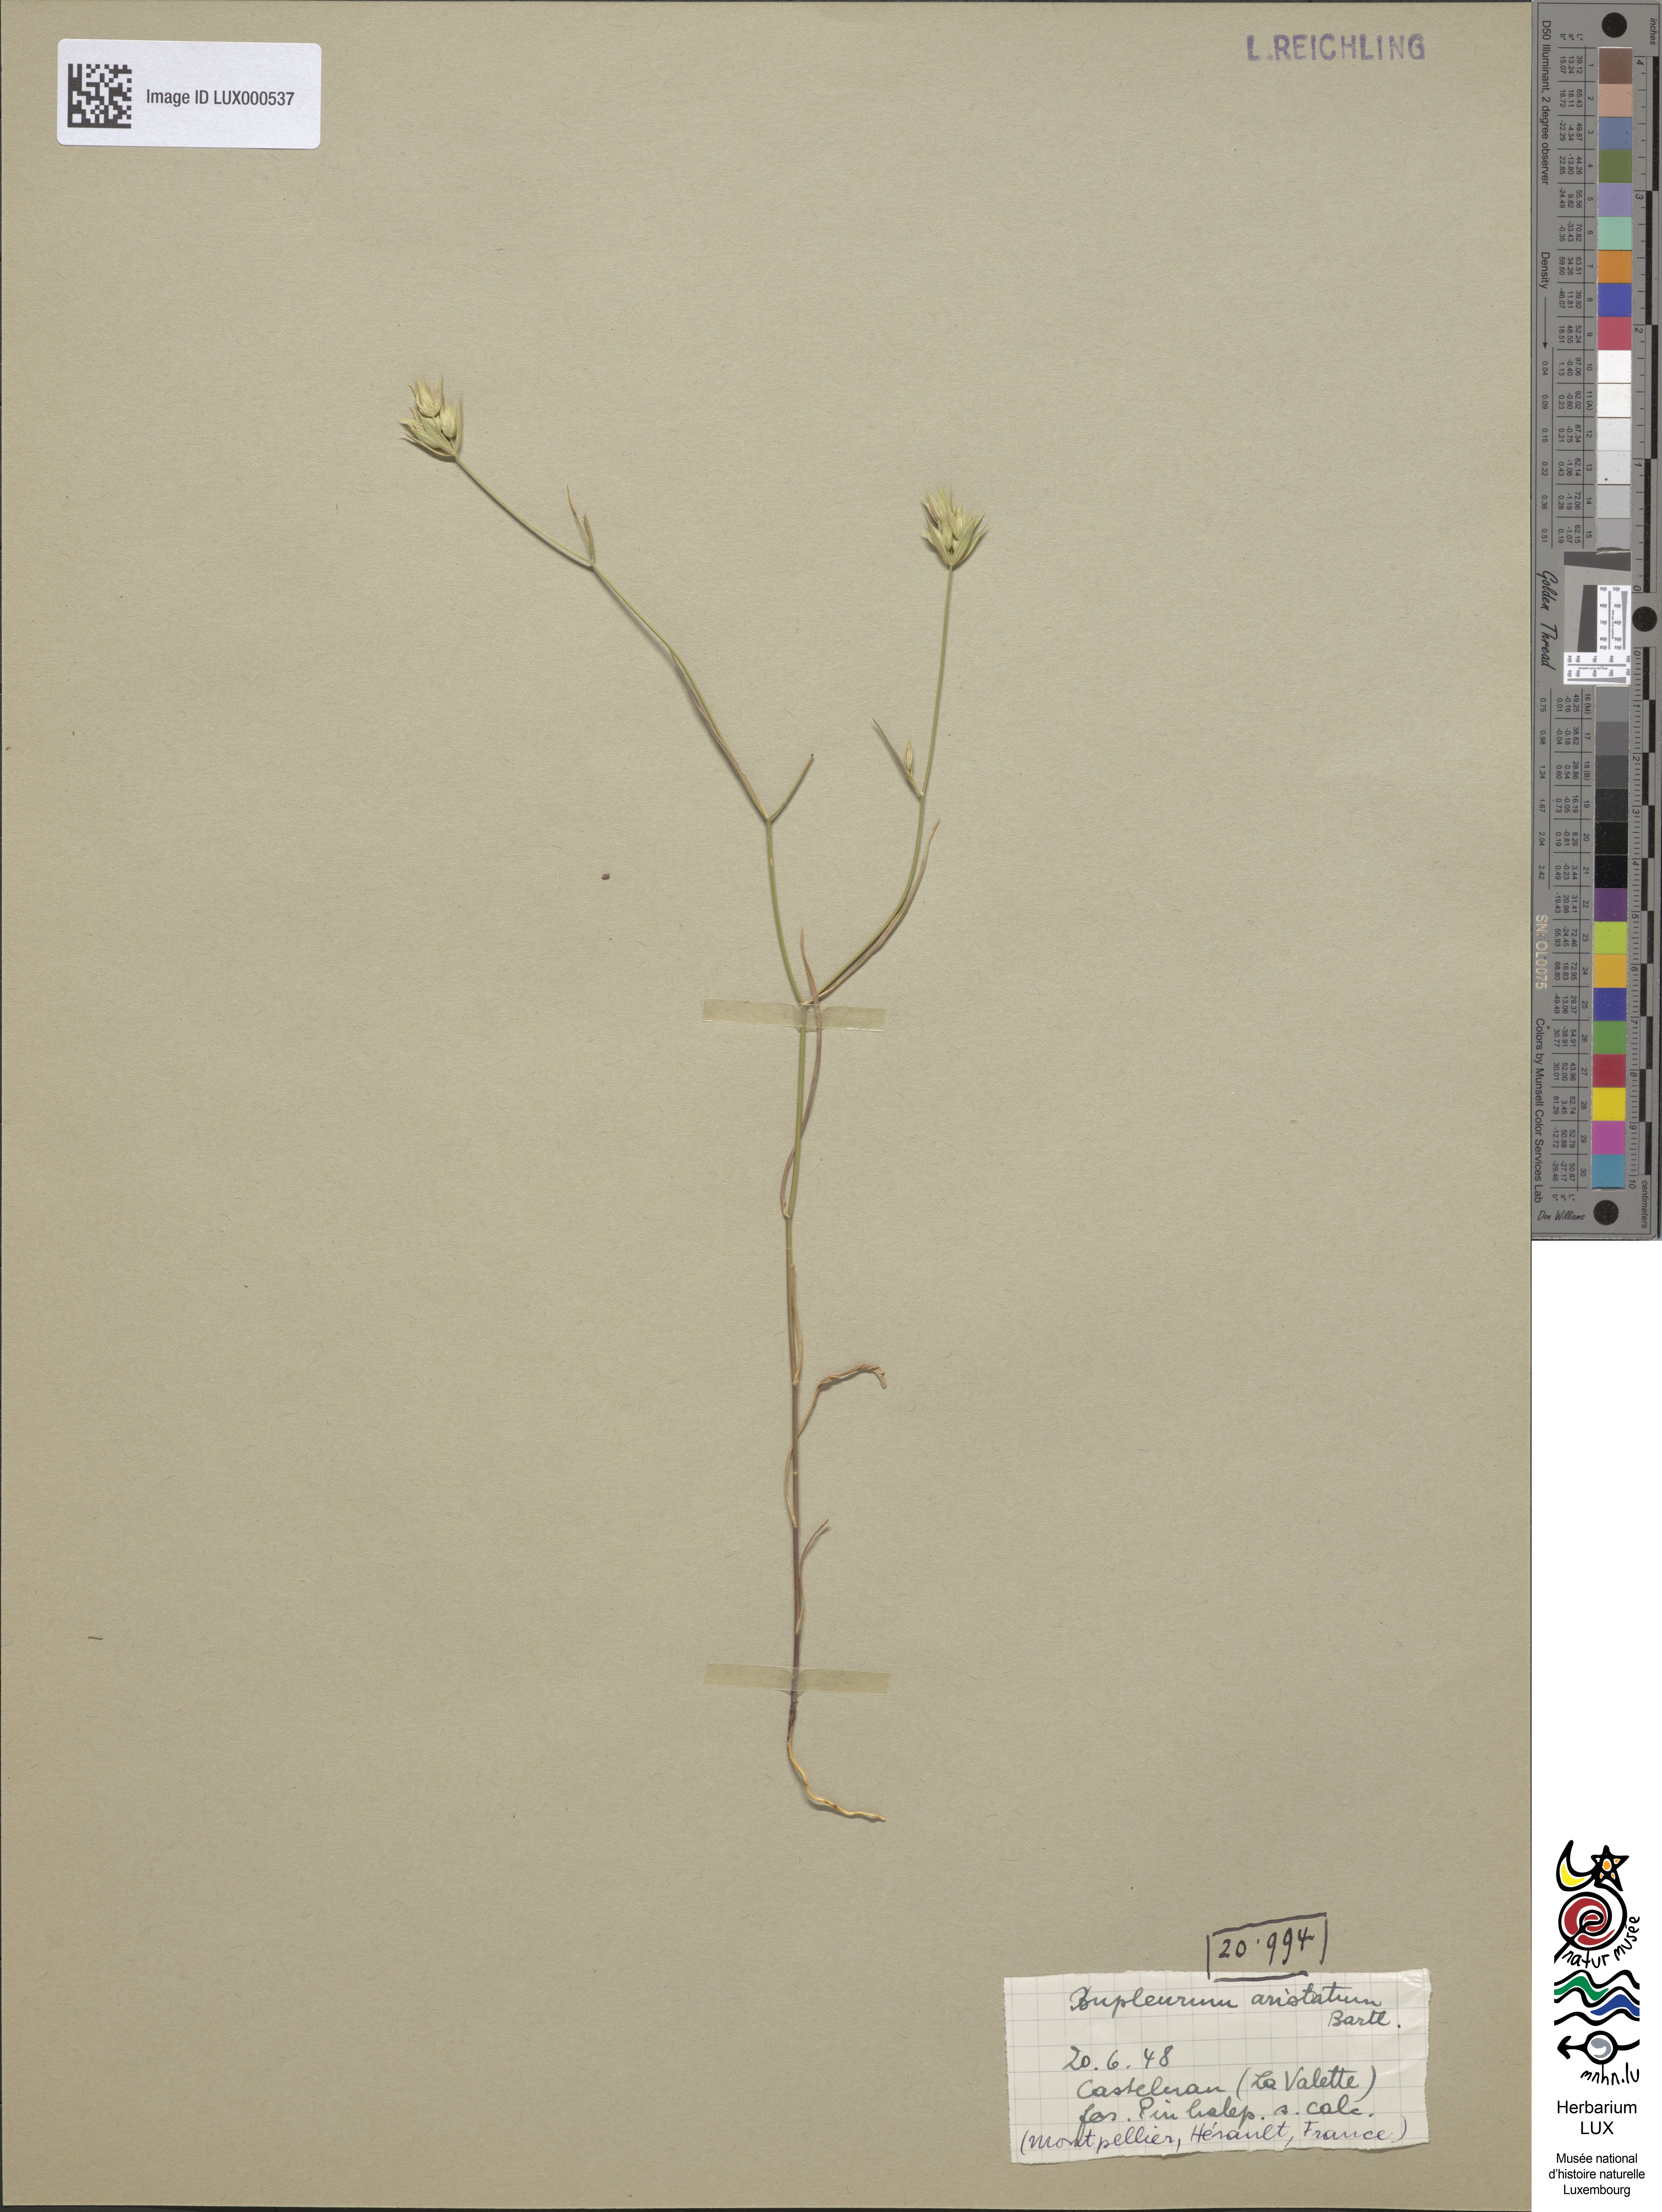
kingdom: Plantae
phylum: Tracheophyta
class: Magnoliopsida
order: Apiales
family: Apiaceae
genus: Bupleurum
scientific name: Bupleurum baldense
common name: Small hare's-ear
